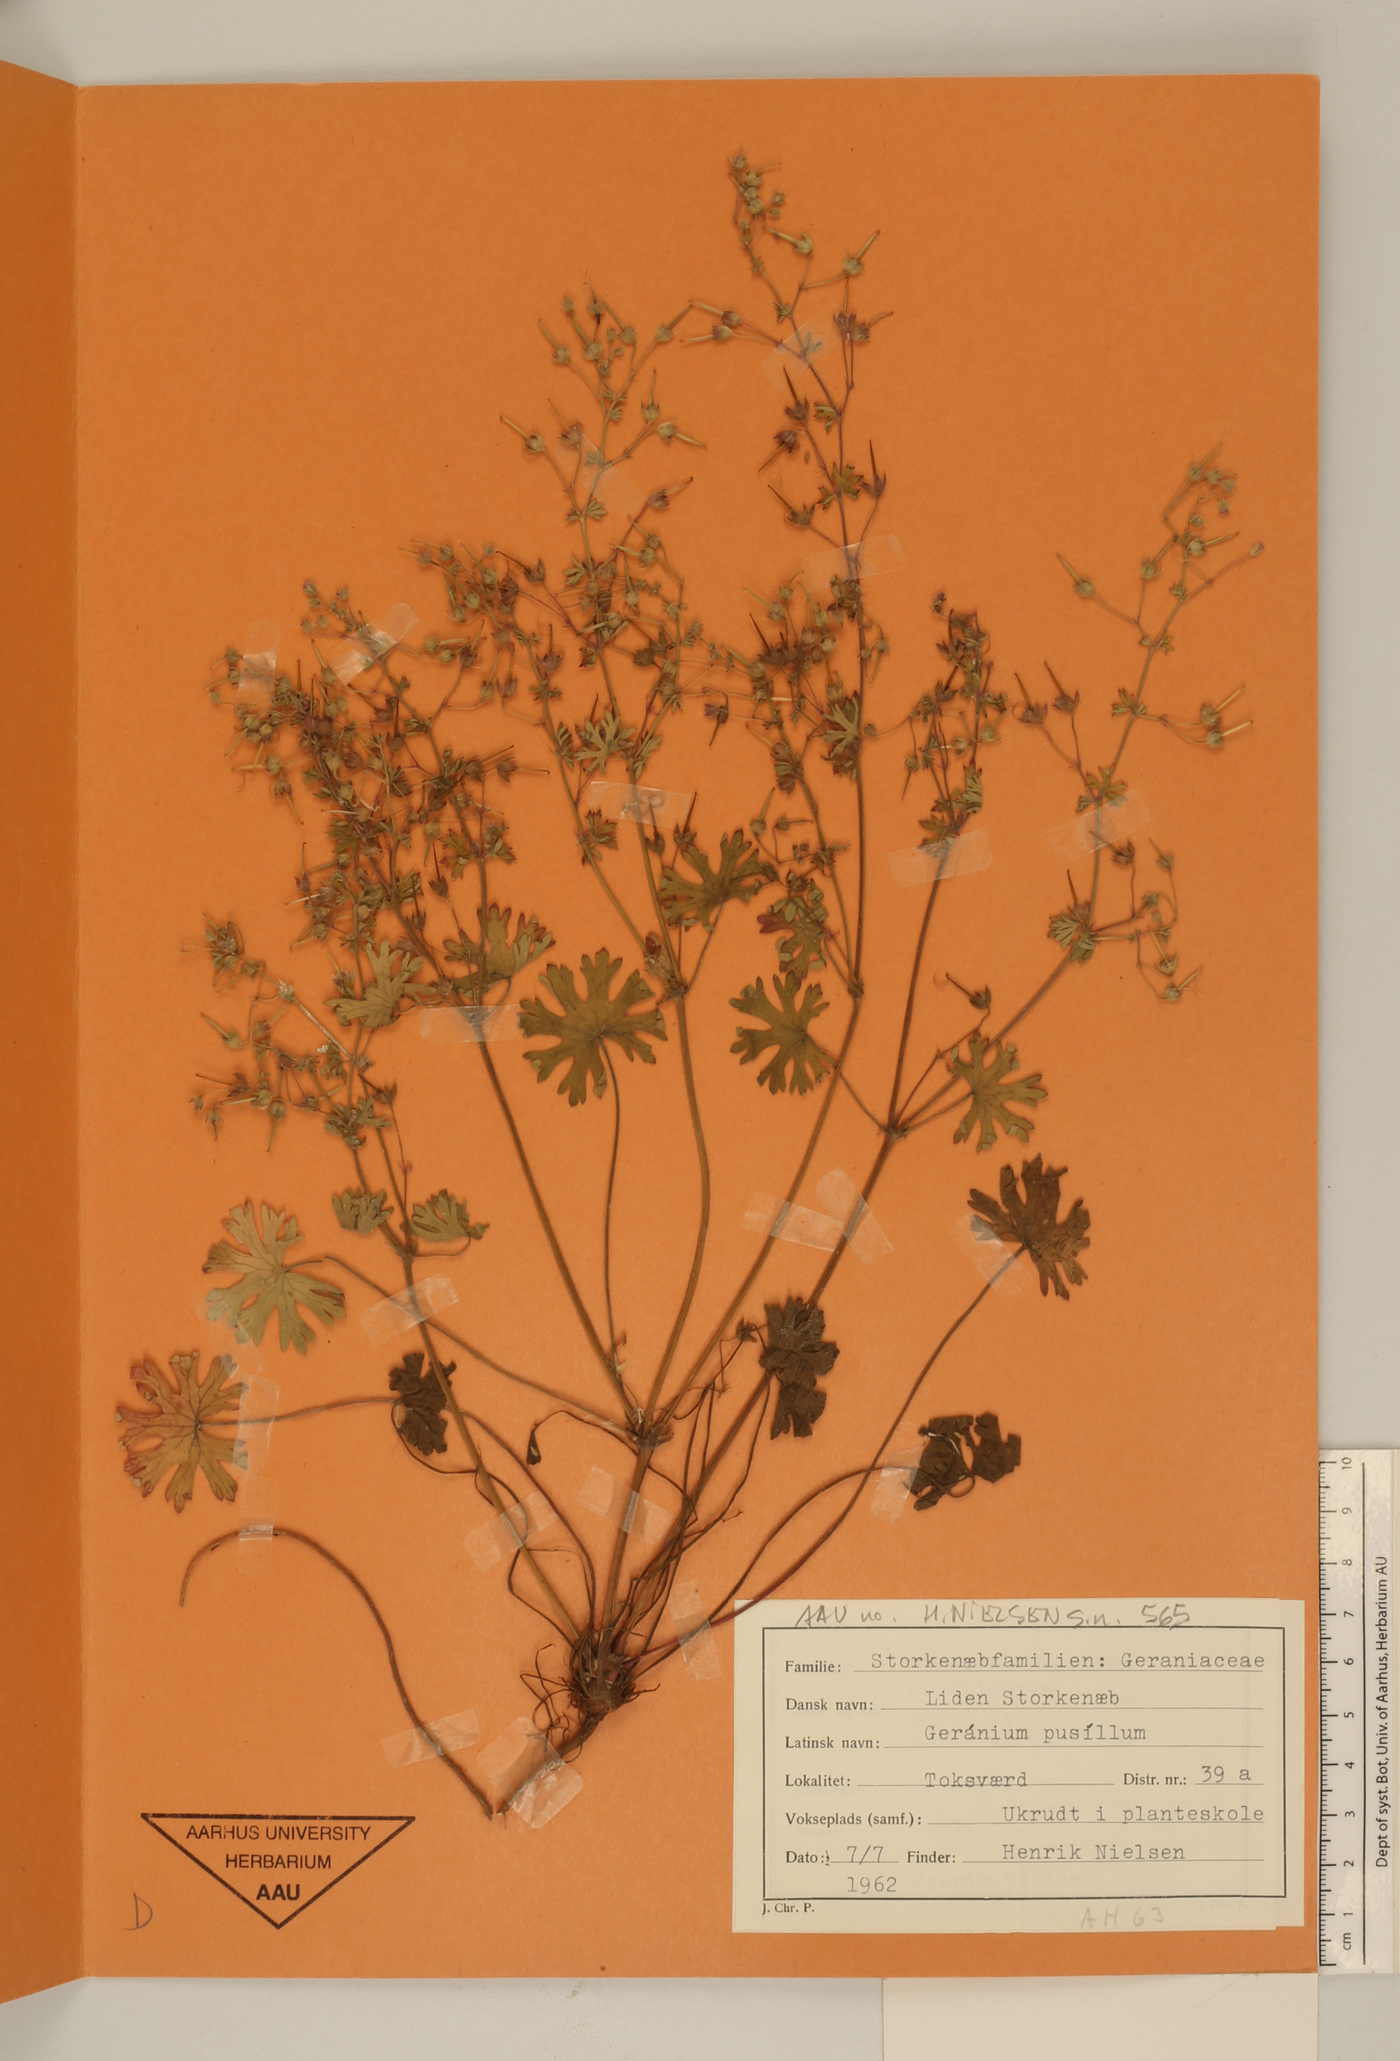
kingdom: Plantae
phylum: Tracheophyta
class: Magnoliopsida
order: Geraniales
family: Geraniaceae
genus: Geranium
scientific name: Geranium pusillum
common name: Small geranium
